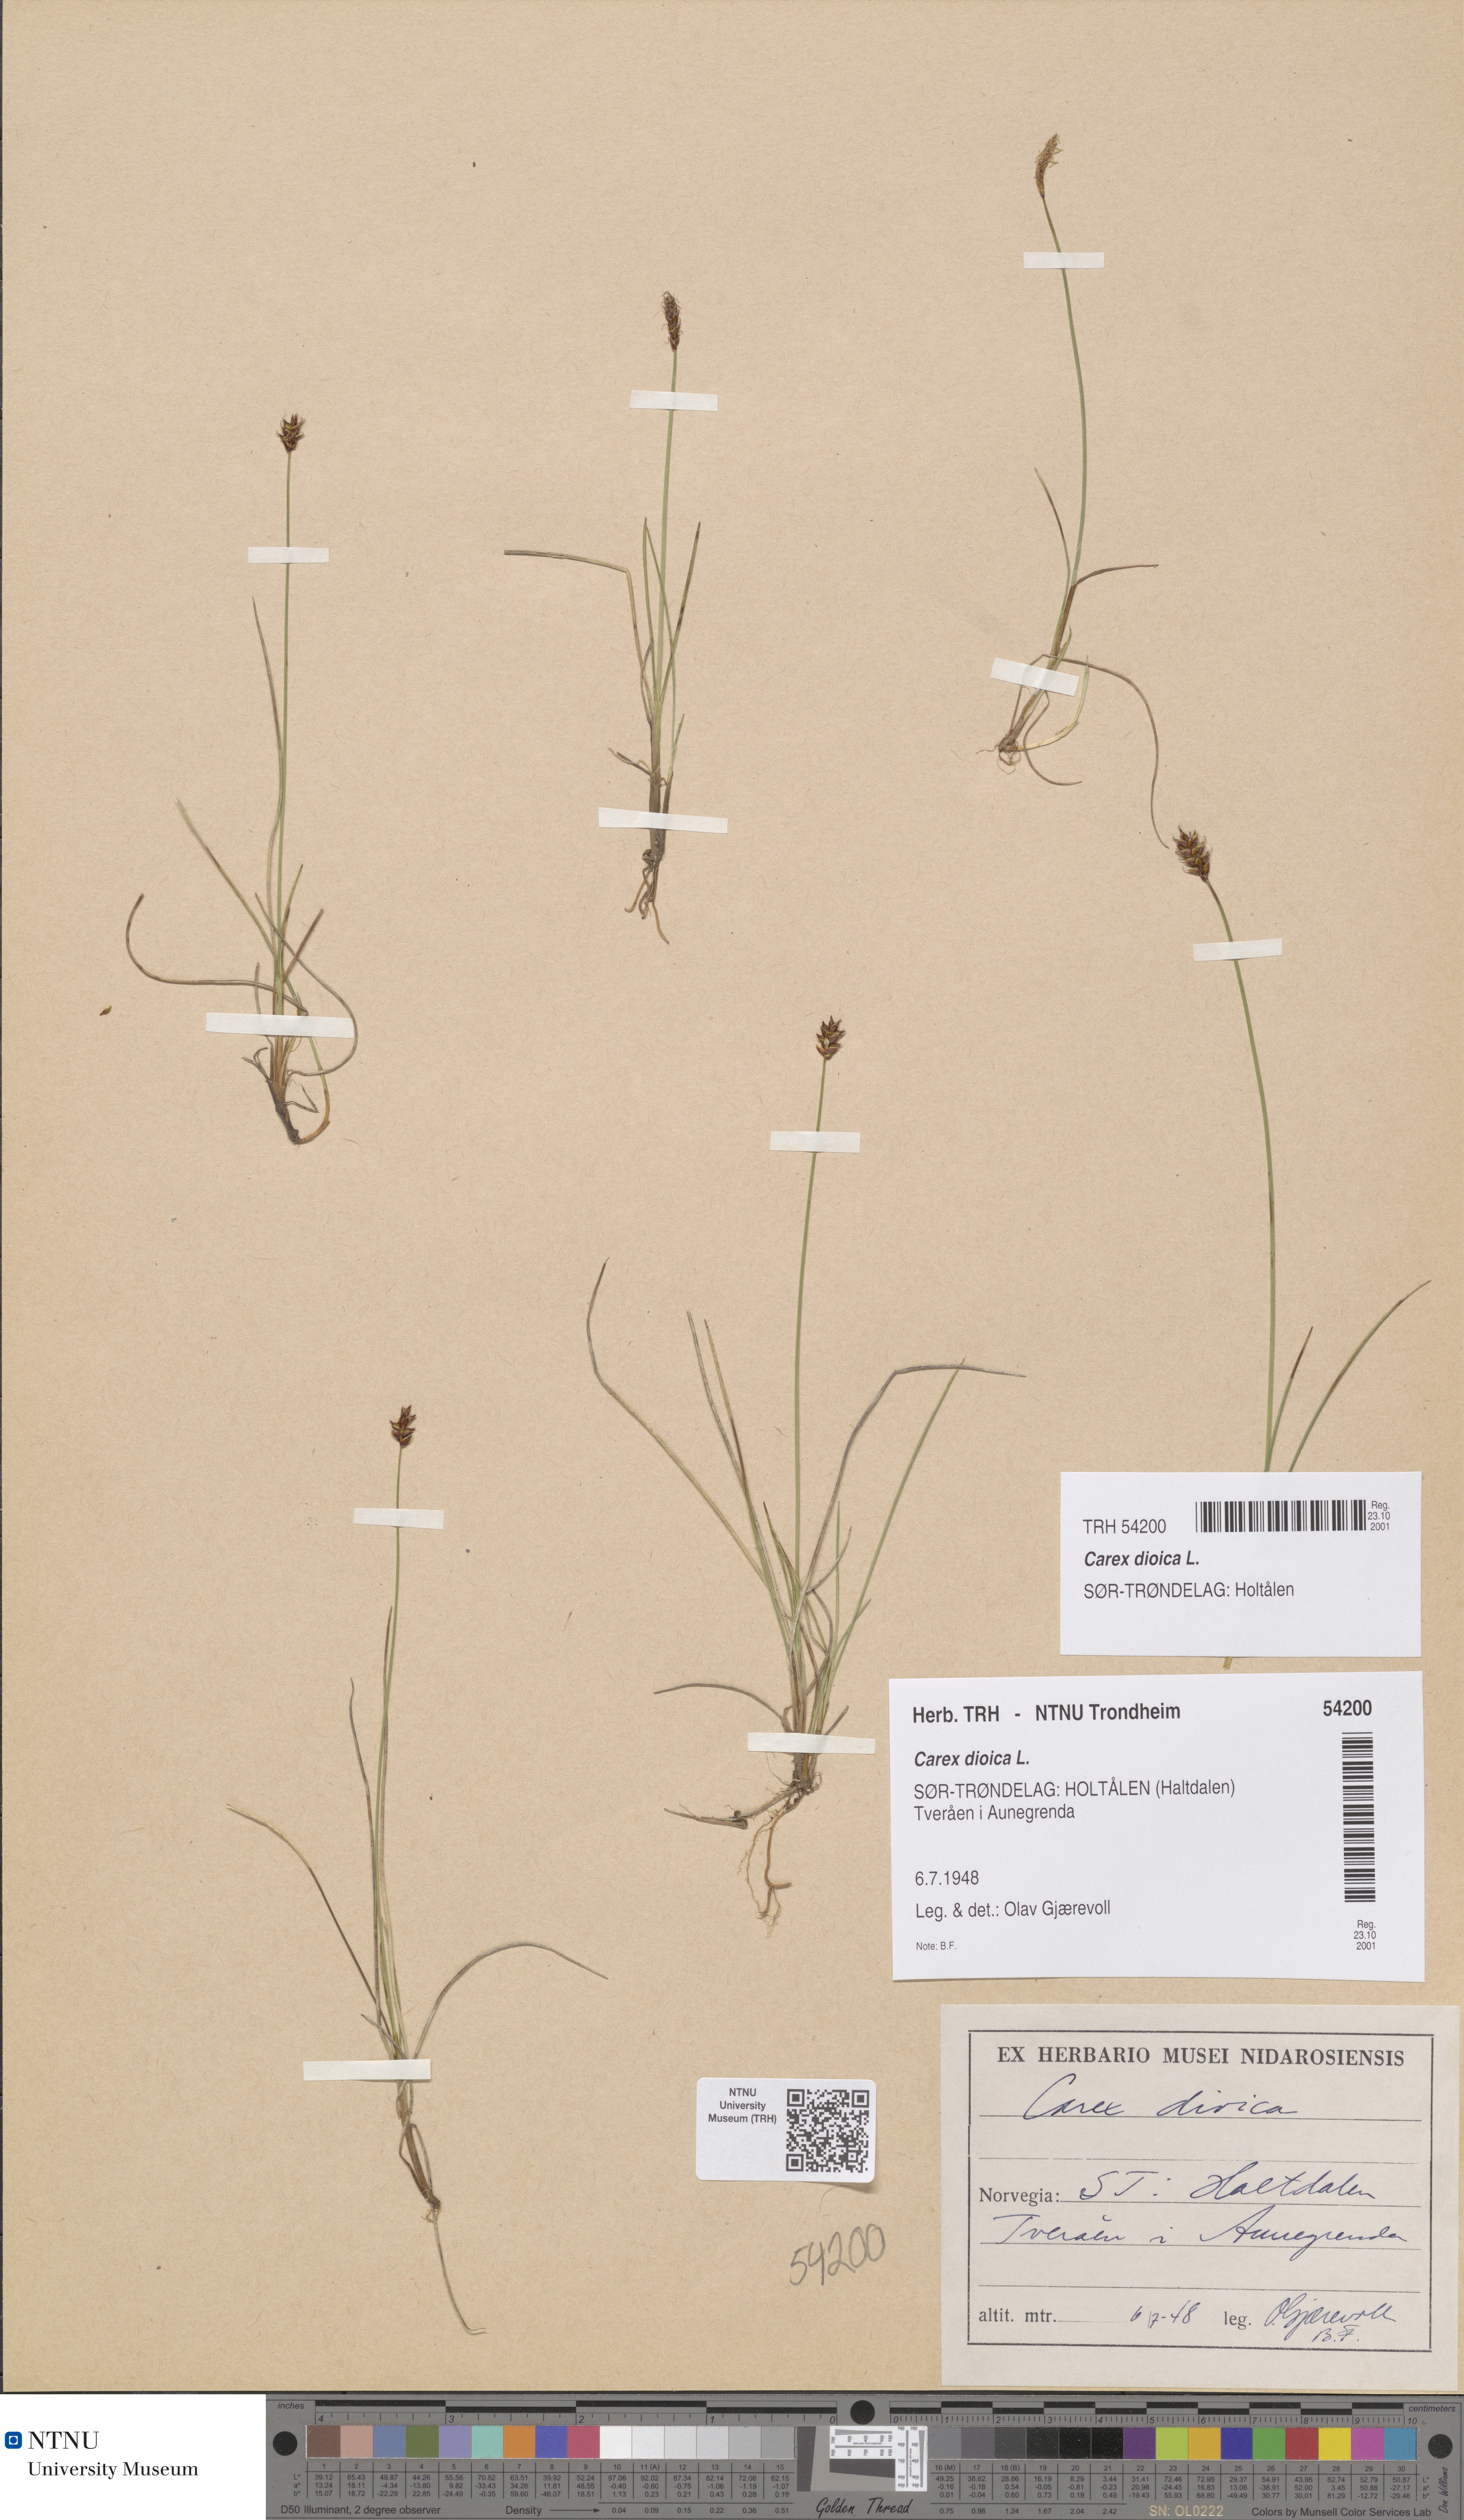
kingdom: Plantae
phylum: Tracheophyta
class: Liliopsida
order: Poales
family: Cyperaceae
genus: Carex
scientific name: Carex dioica
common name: Dioecious sedge
